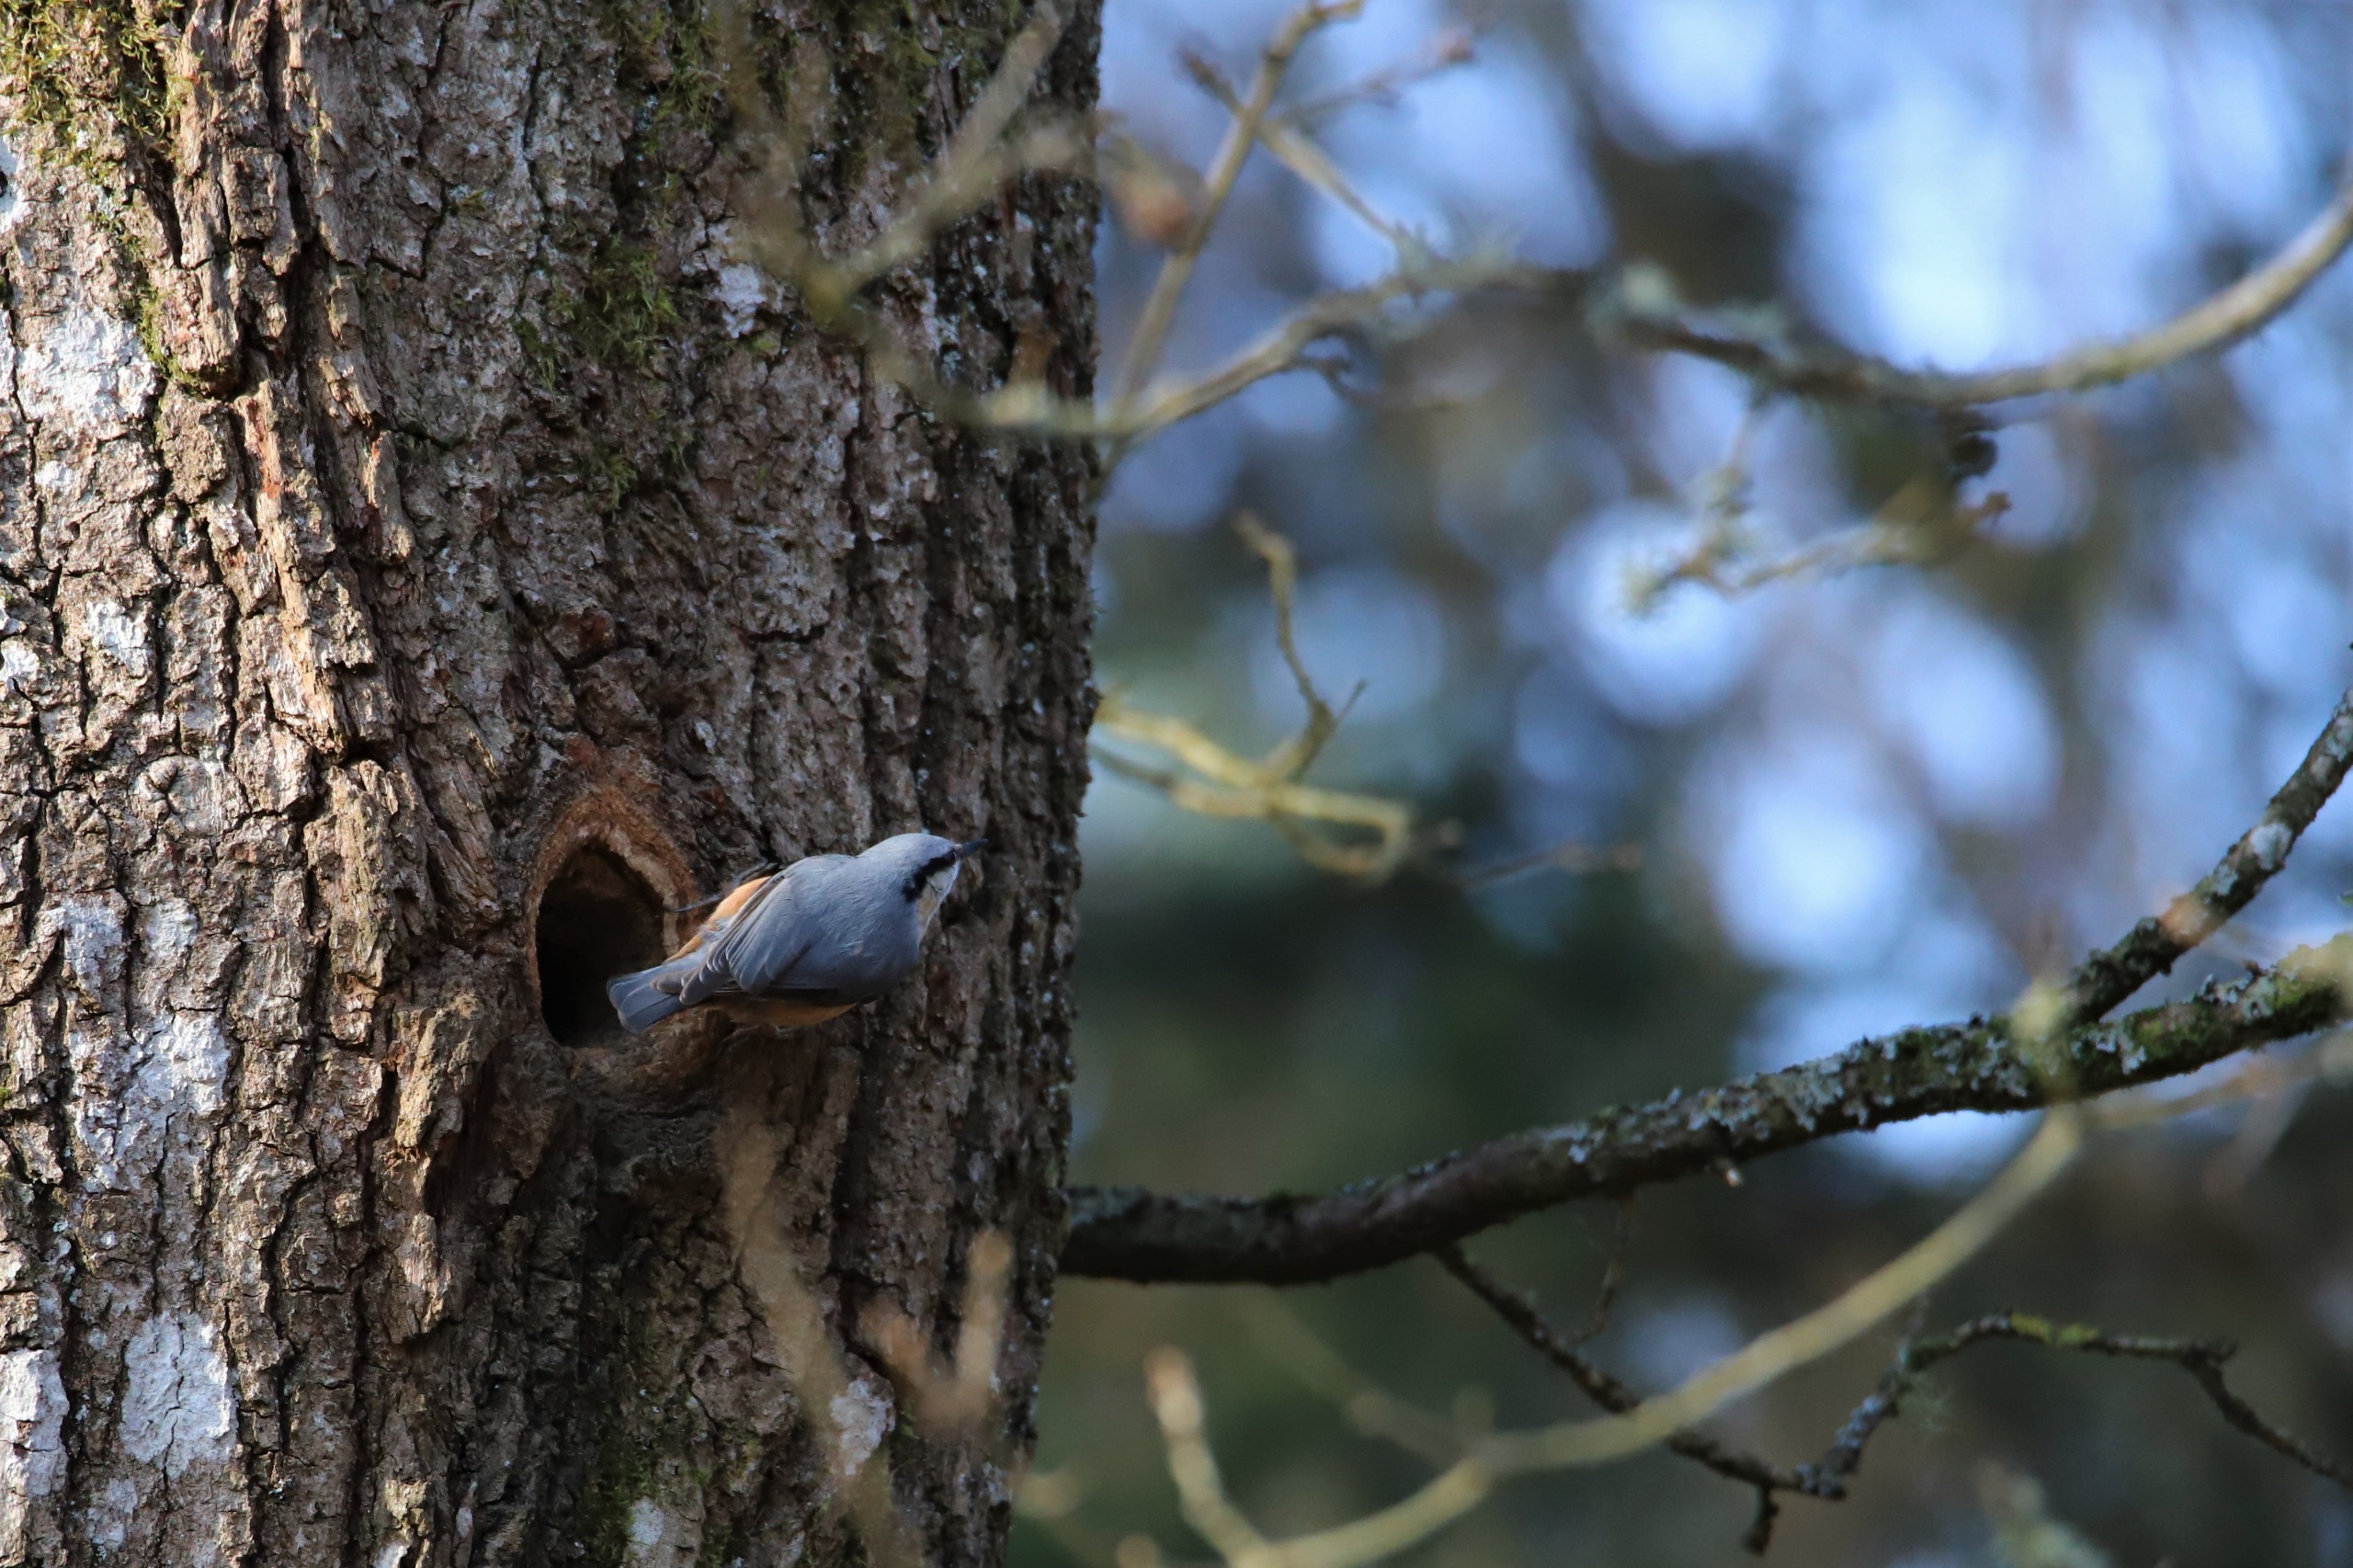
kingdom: Animalia
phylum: Chordata
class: Aves
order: Passeriformes
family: Sittidae
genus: Sitta
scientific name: Sitta europaea
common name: Spætmejse
